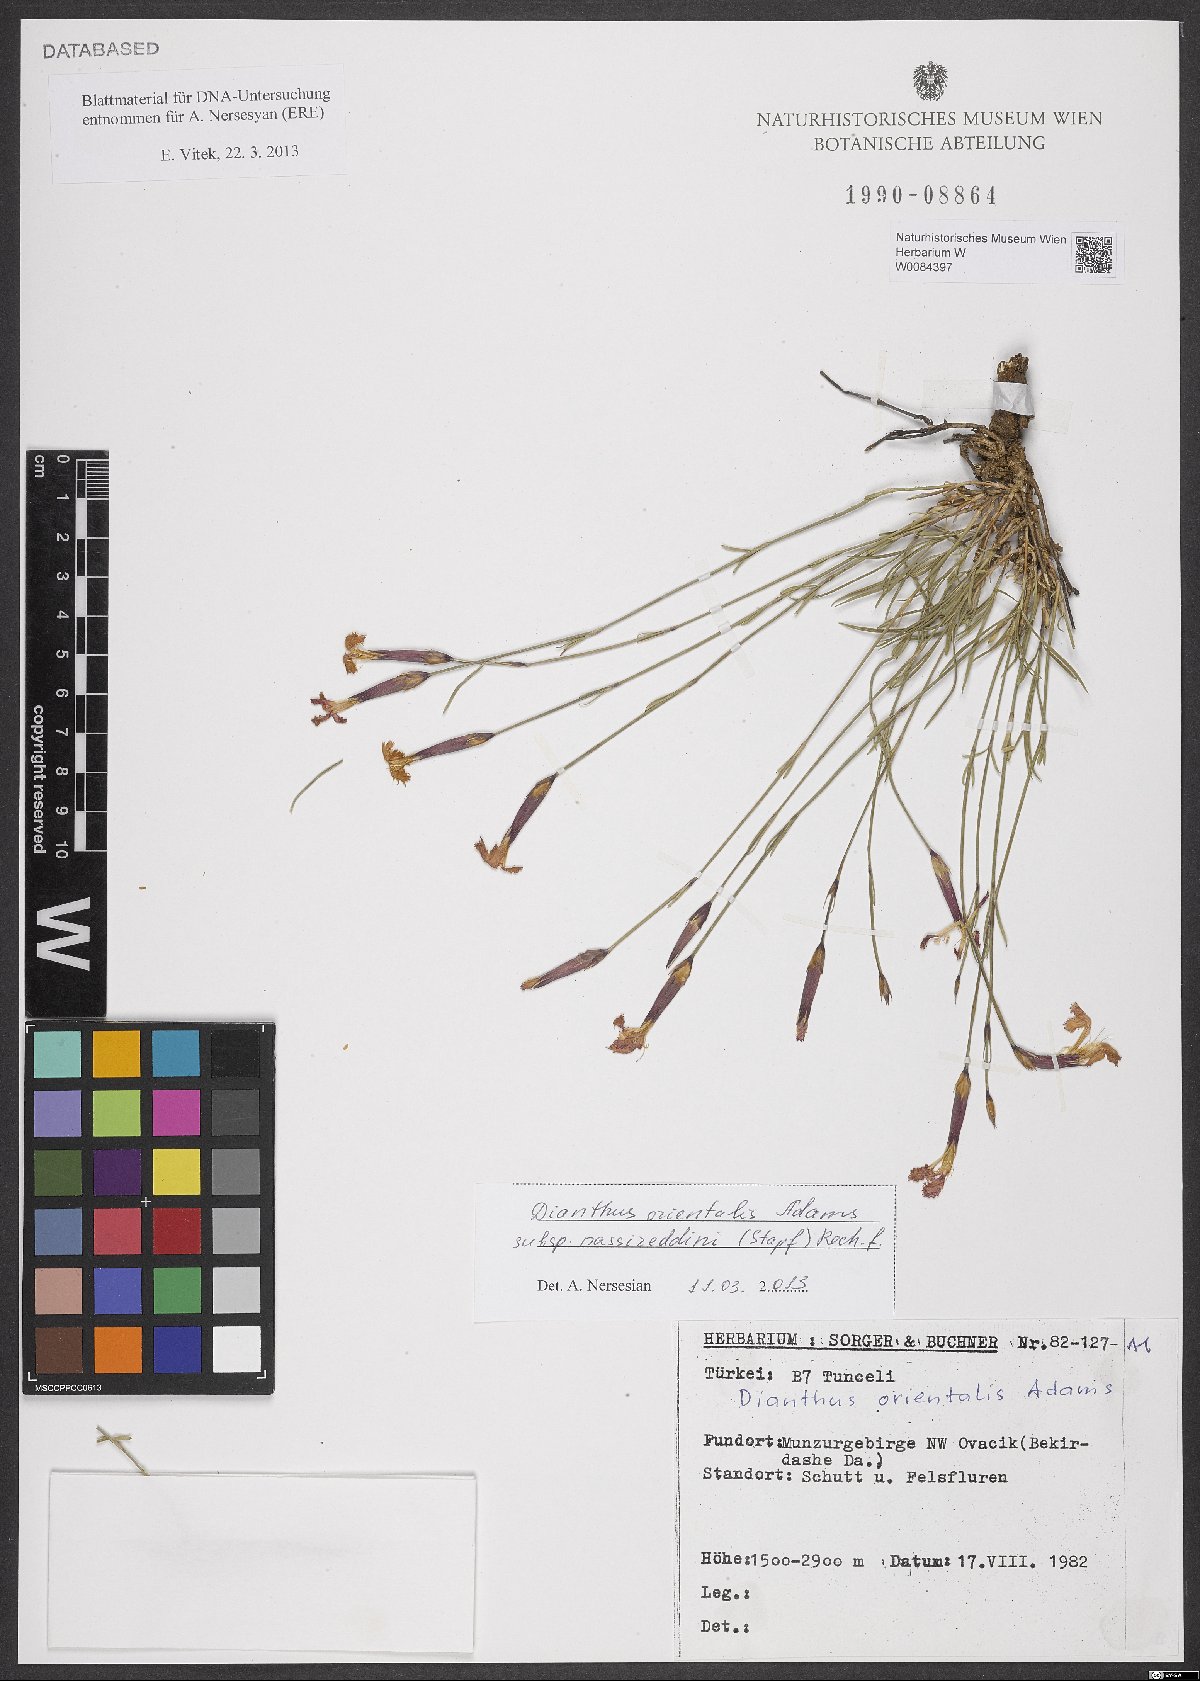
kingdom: Plantae
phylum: Tracheophyta
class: Magnoliopsida
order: Caryophyllales
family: Caryophyllaceae
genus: Dianthus
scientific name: Dianthus orientalis
